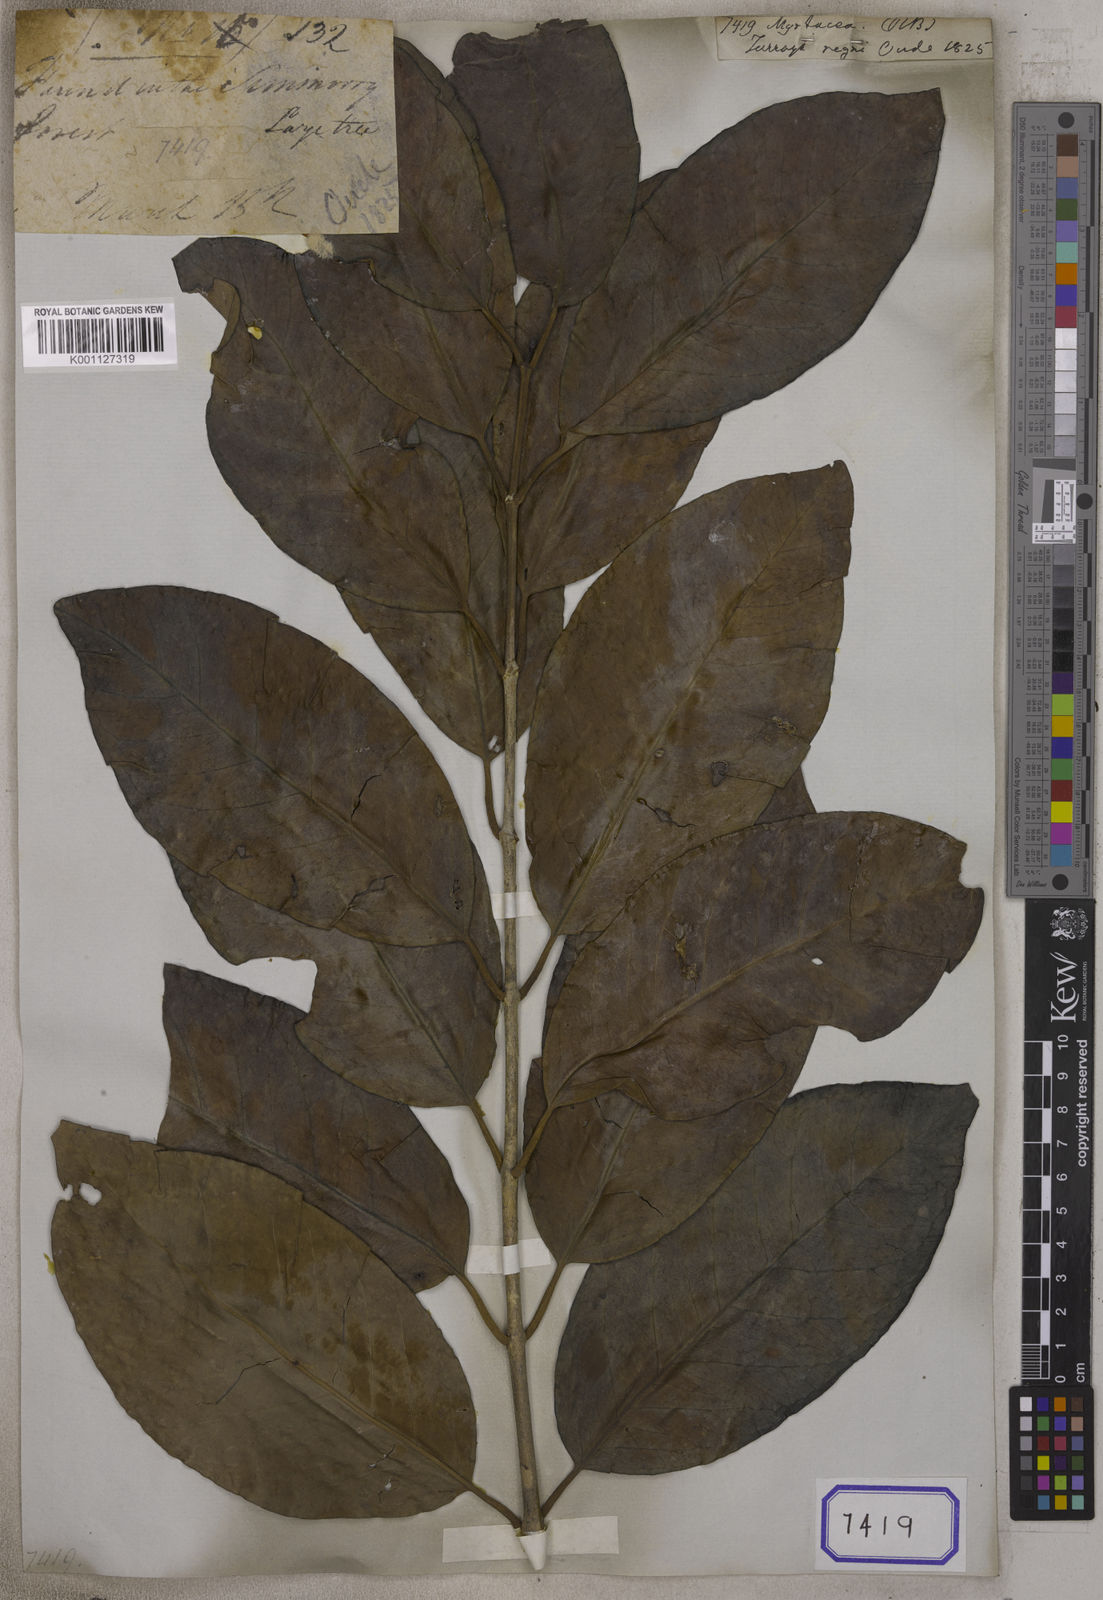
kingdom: Plantae
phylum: Tracheophyta
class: Magnoliopsida
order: Myrtales
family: Myrtaceae
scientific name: Myrtaceae
